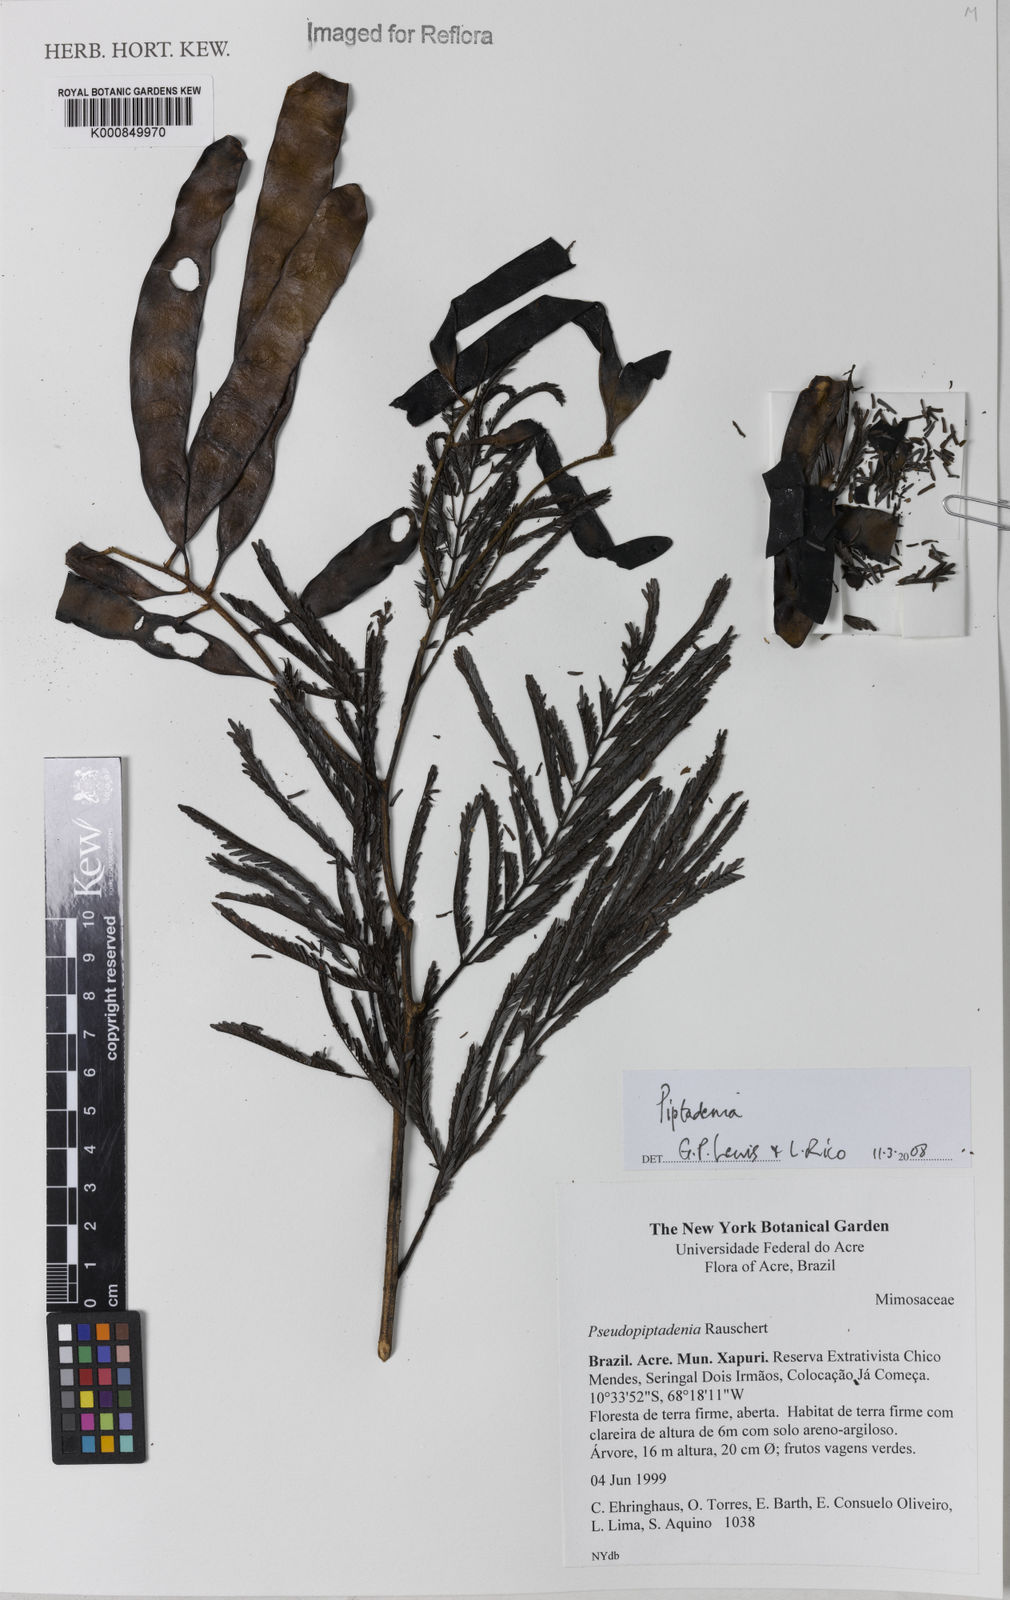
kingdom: Plantae
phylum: Tracheophyta
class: Magnoliopsida
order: Fabales
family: Fabaceae
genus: Piptadenia
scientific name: Piptadenia
